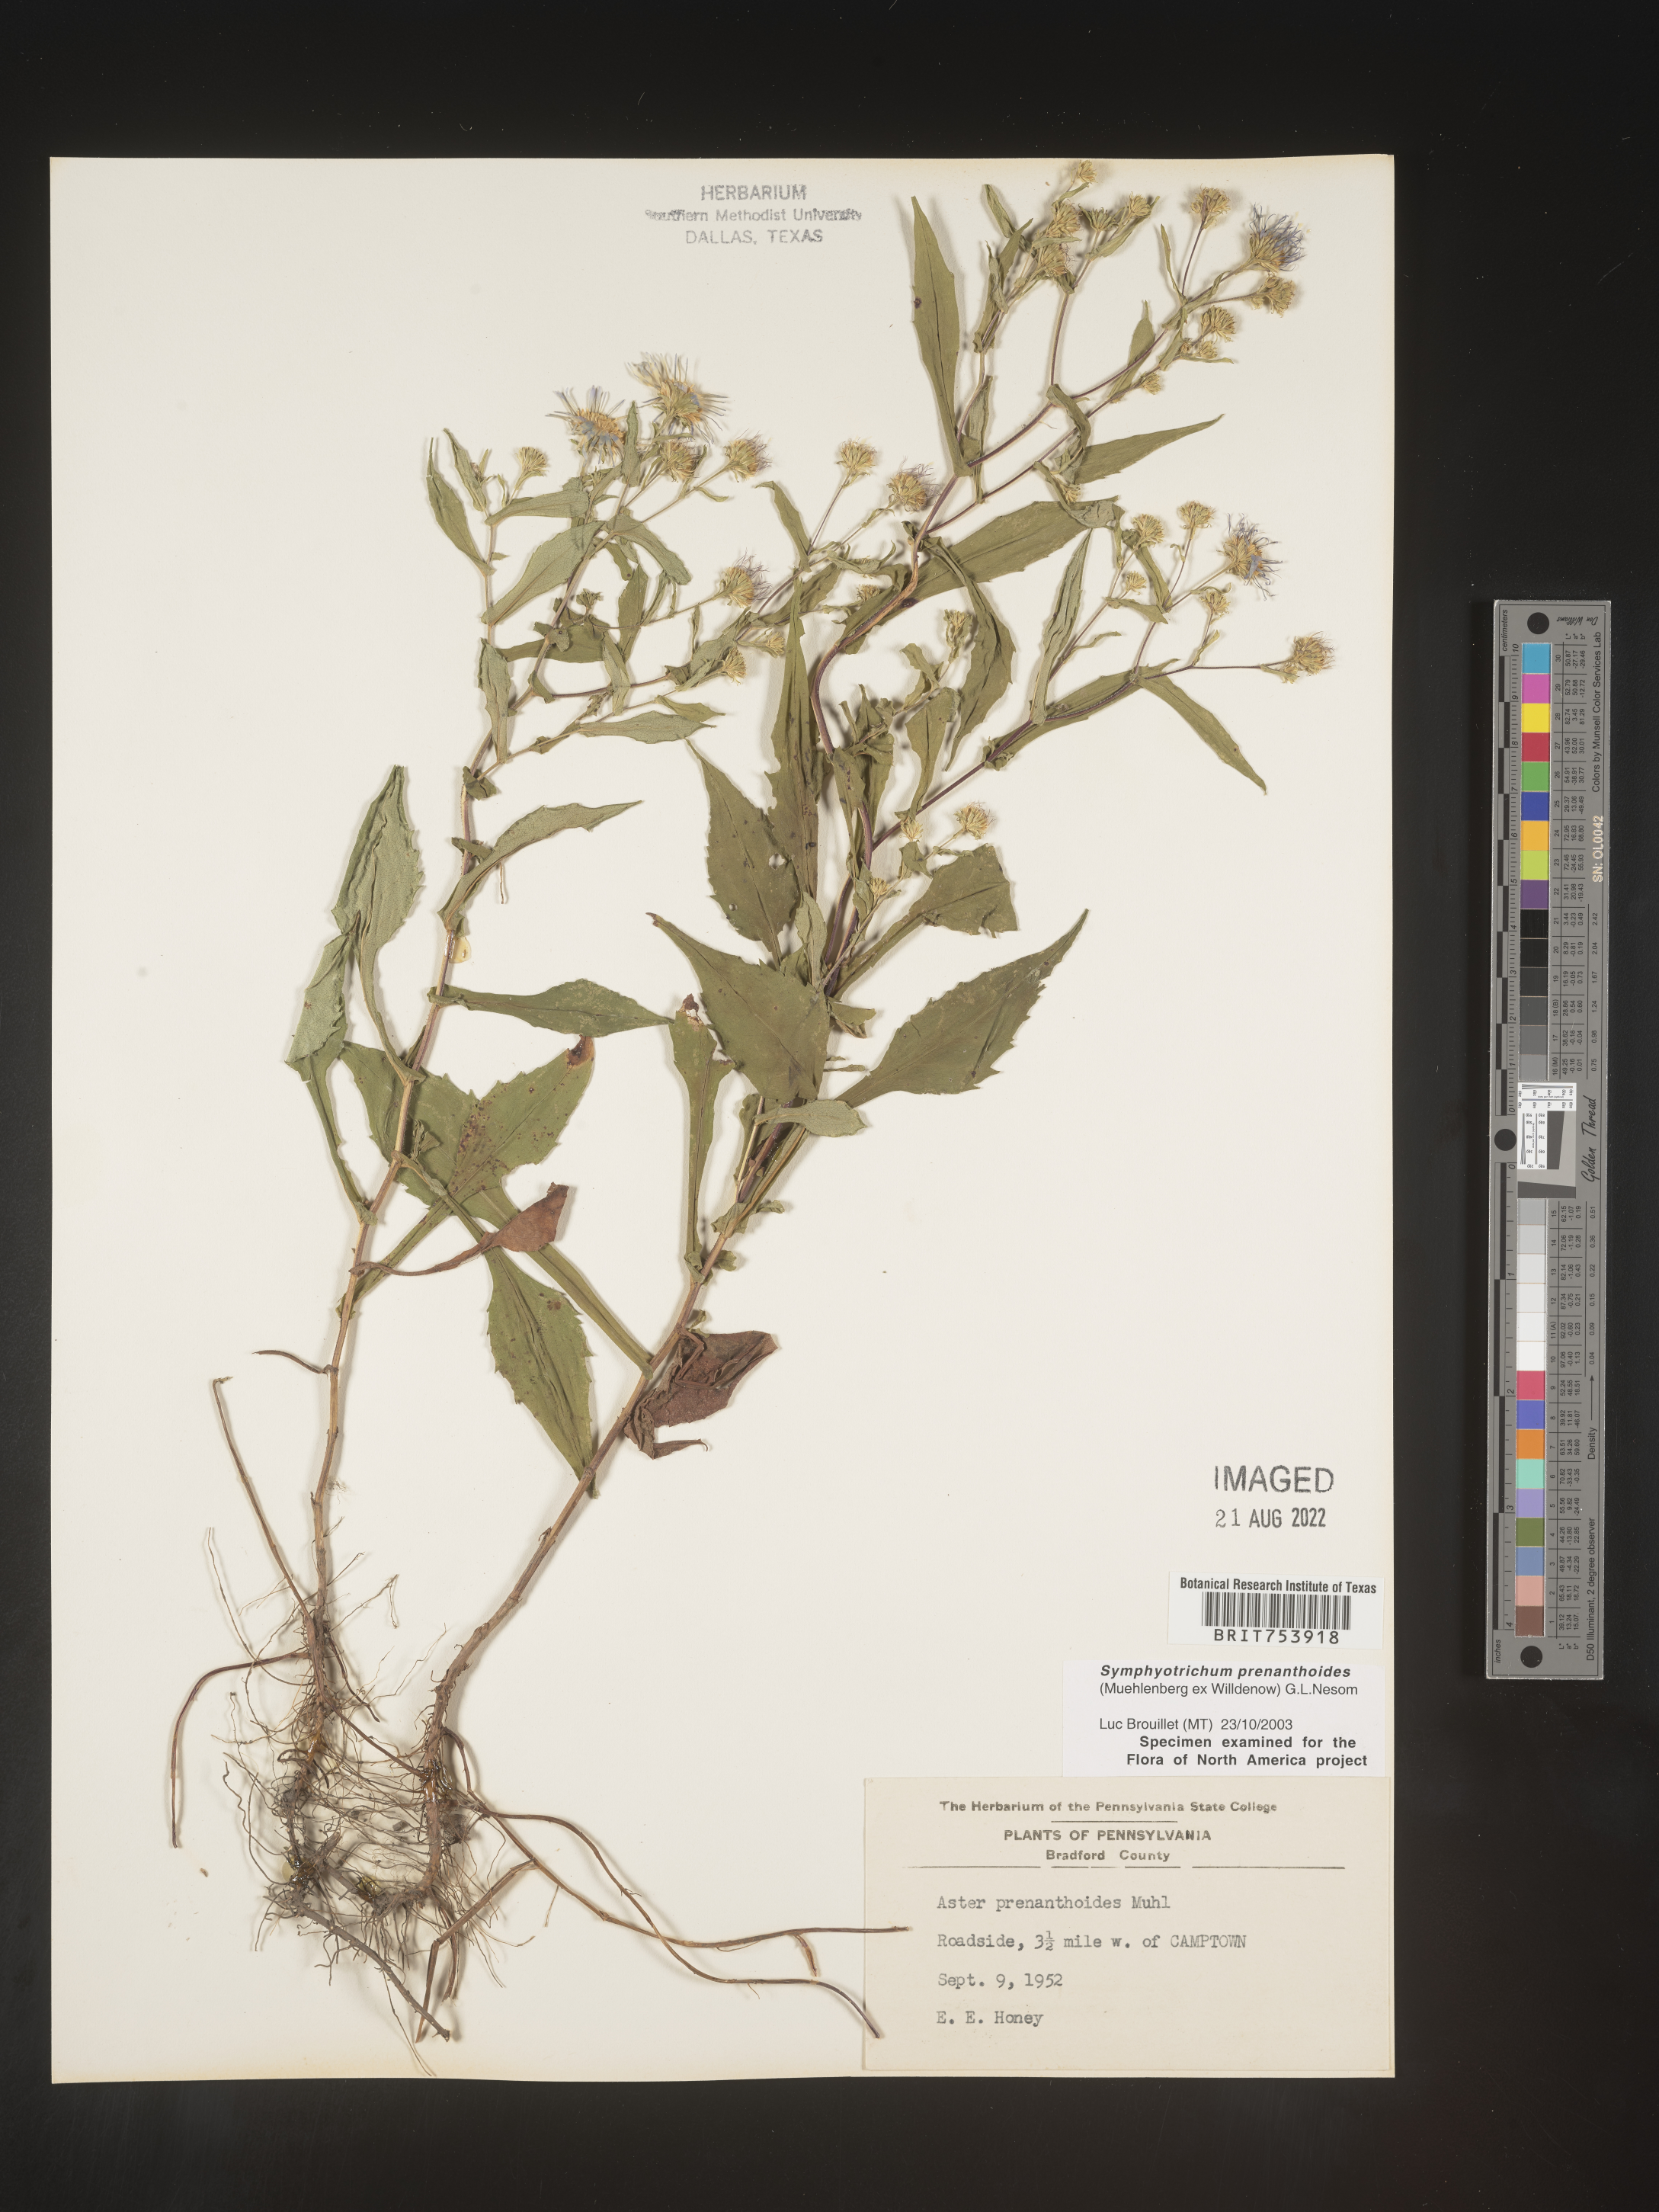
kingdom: Plantae
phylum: Tracheophyta
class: Magnoliopsida
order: Asterales
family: Asteraceae
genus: Symphyotrichum
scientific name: Symphyotrichum prenanthoides
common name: Crooked-stem aster
